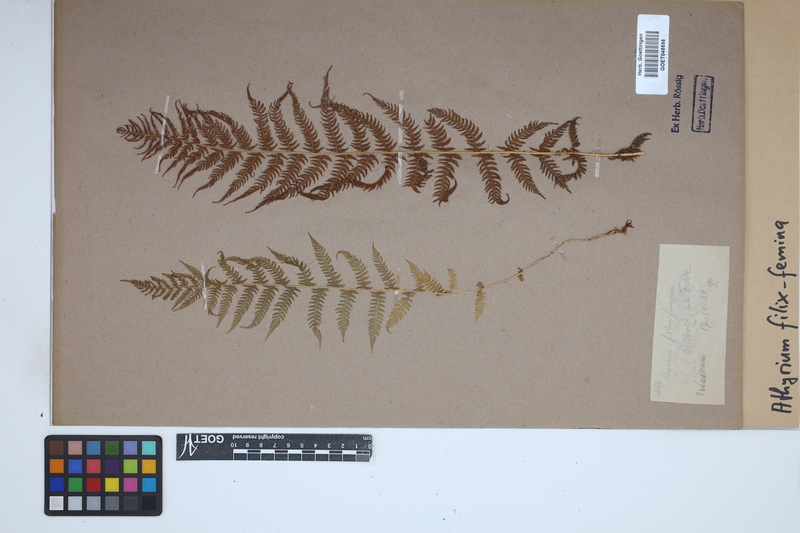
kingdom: Plantae
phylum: Tracheophyta
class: Polypodiopsida
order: Polypodiales
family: Athyriaceae
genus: Athyrium
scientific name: Athyrium filix-femina
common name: Lady fern
